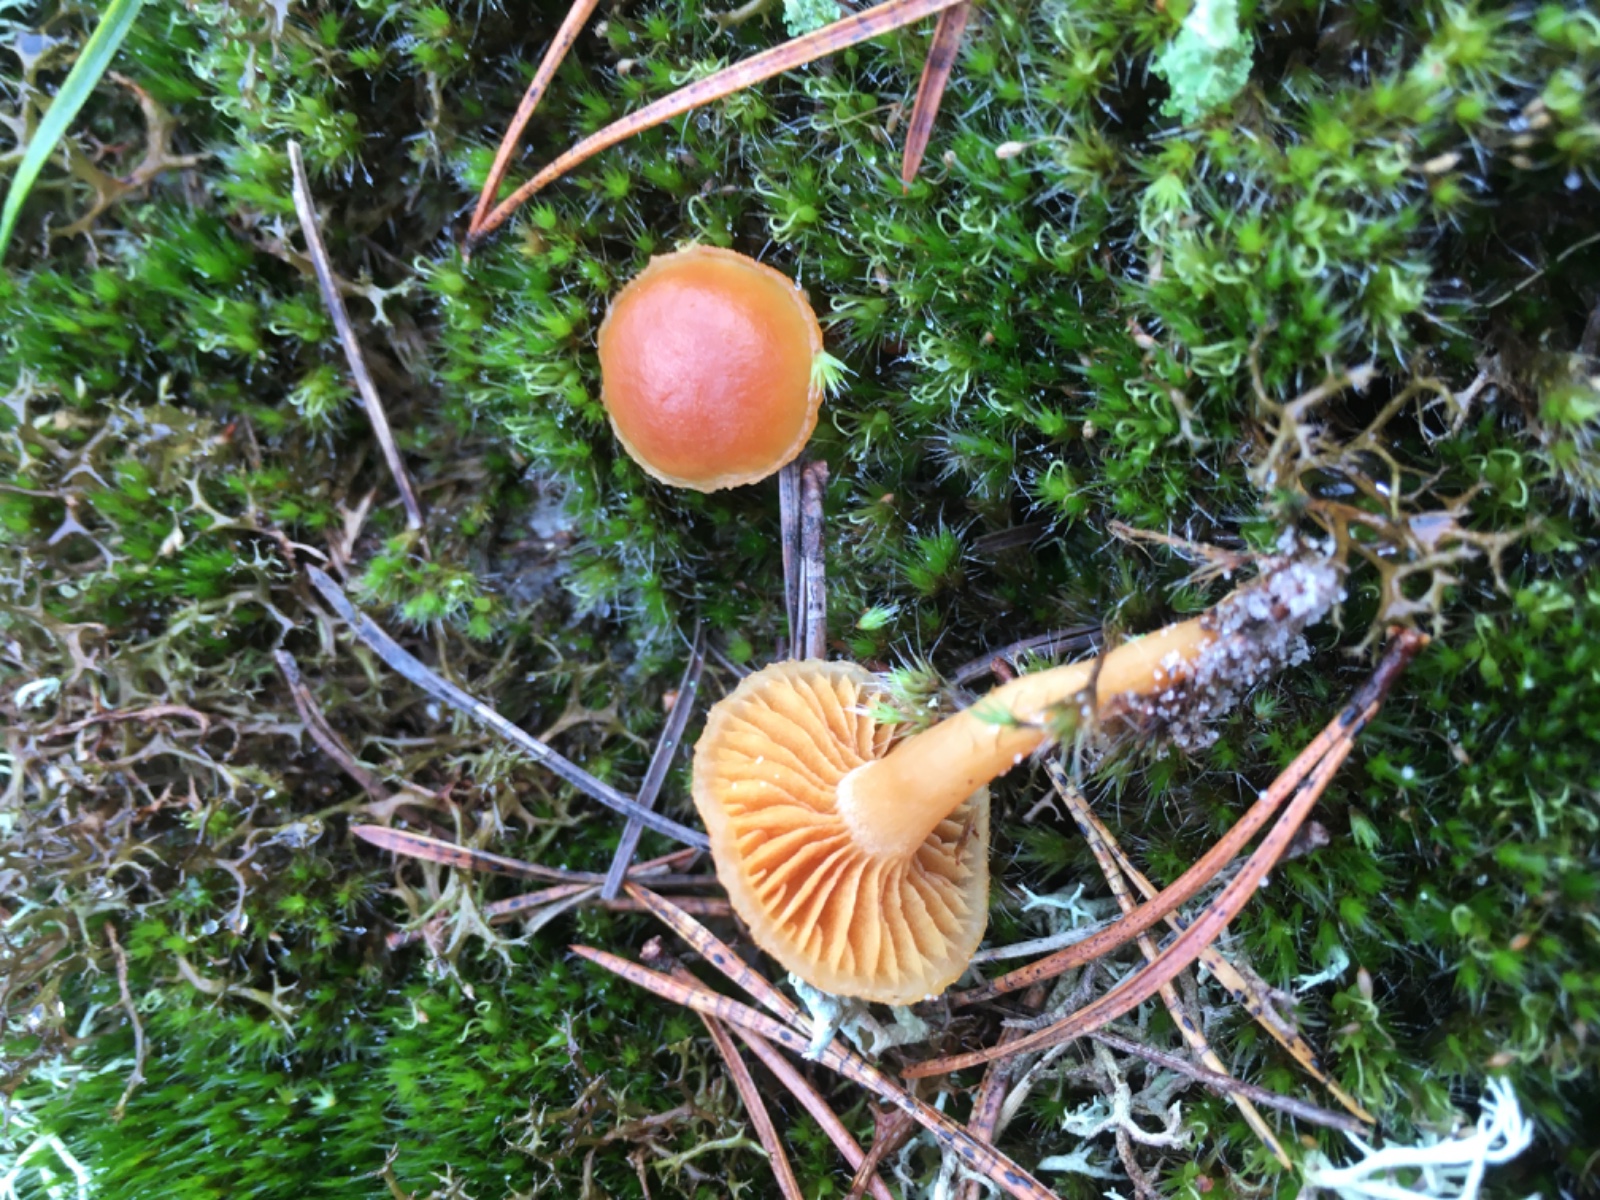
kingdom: Fungi
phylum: Basidiomycota
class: Agaricomycetes
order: Agaricales
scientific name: Agaricales
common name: champignonordenen
